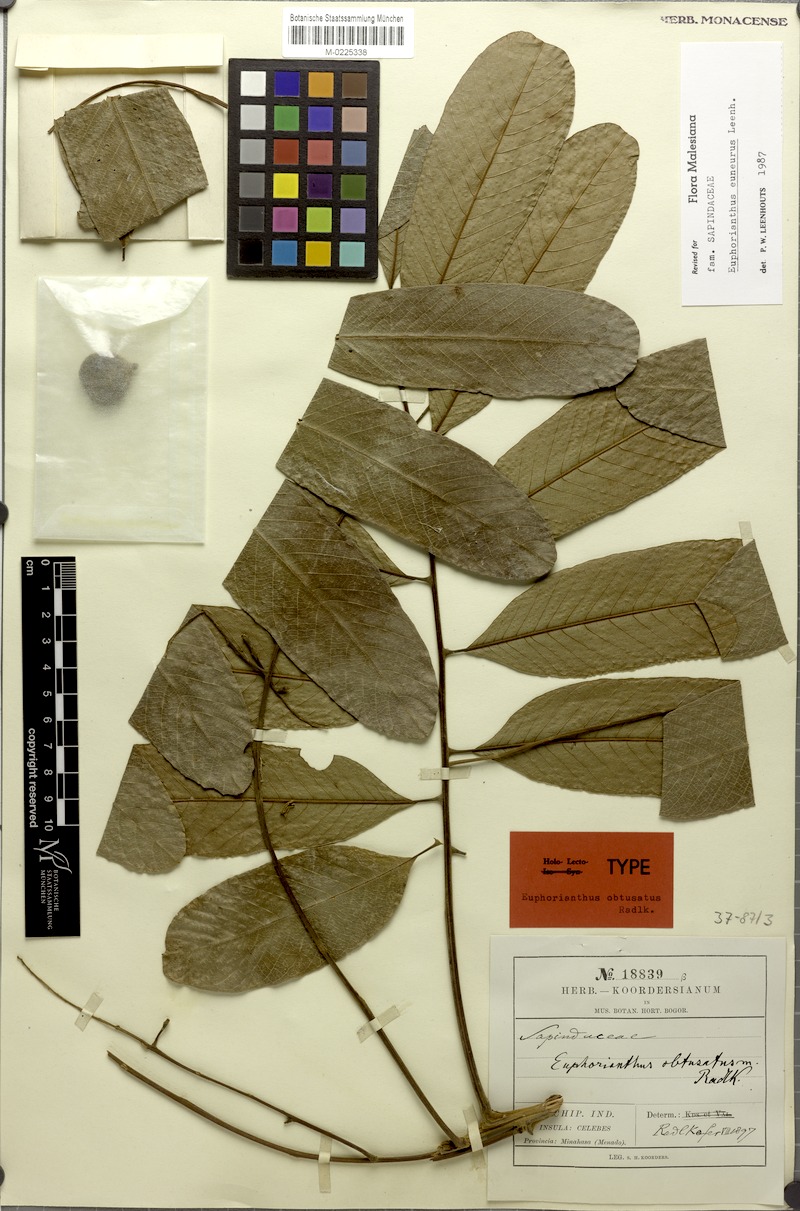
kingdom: Plantae
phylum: Tracheophyta
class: Magnoliopsida
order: Sapindales
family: Sapindaceae
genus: Euphorianthus
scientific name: Euphorianthus euneurus
